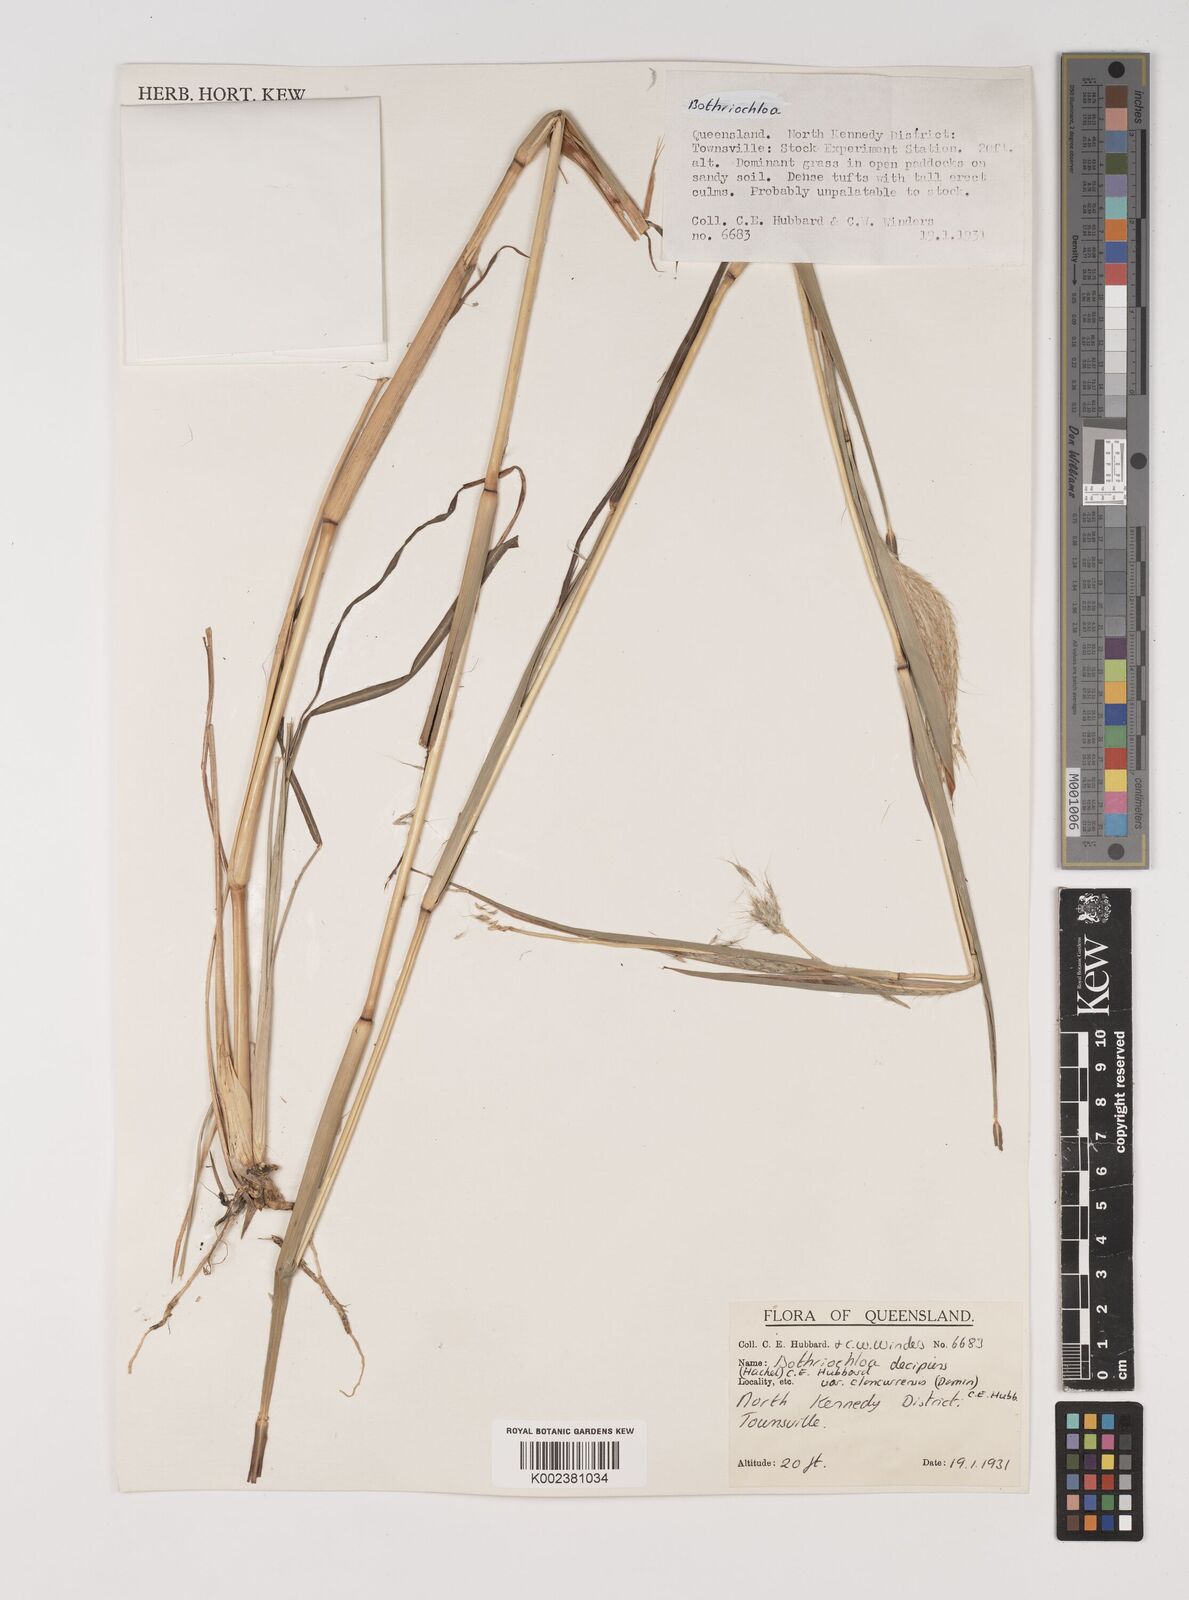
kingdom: Plantae
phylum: Tracheophyta
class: Liliopsida
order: Poales
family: Poaceae
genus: Bothriochloa
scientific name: Bothriochloa decipiens
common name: Pitted-bluegrass
